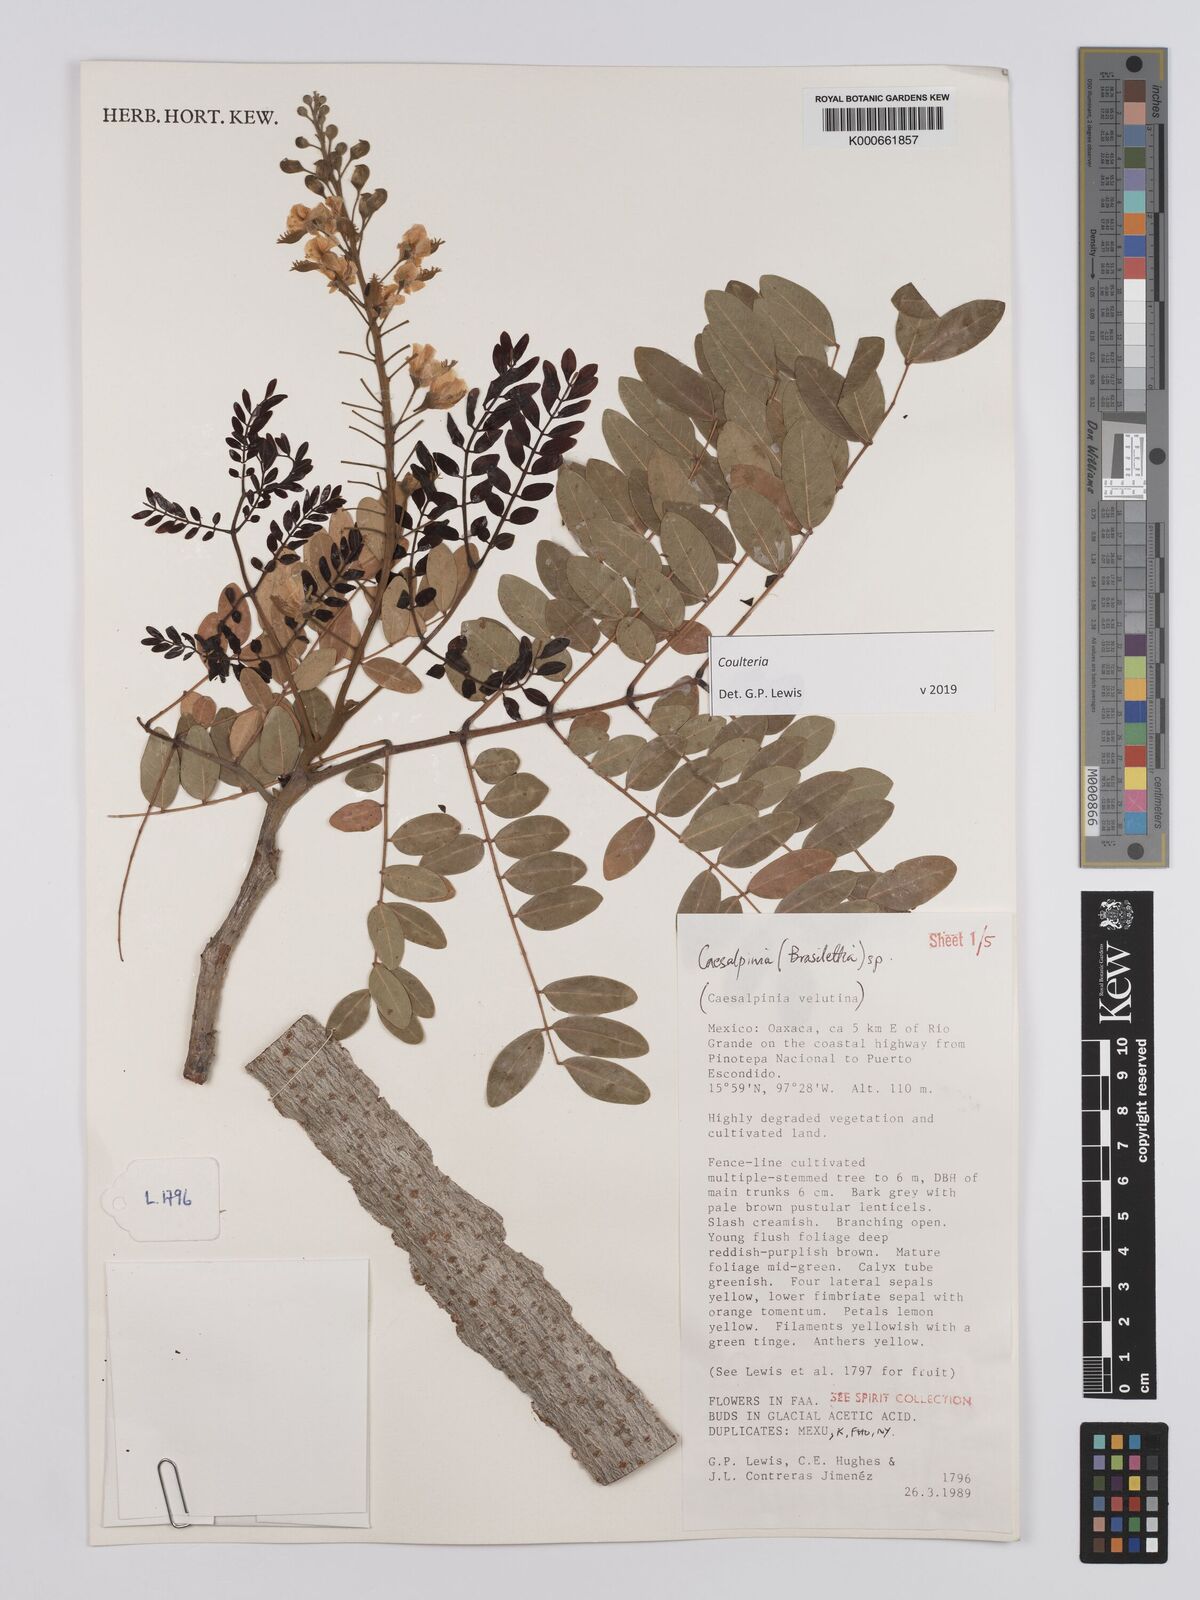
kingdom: Plantae
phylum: Tracheophyta
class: Magnoliopsida
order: Fabales
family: Fabaceae
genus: Coulteria
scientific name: Coulteria
